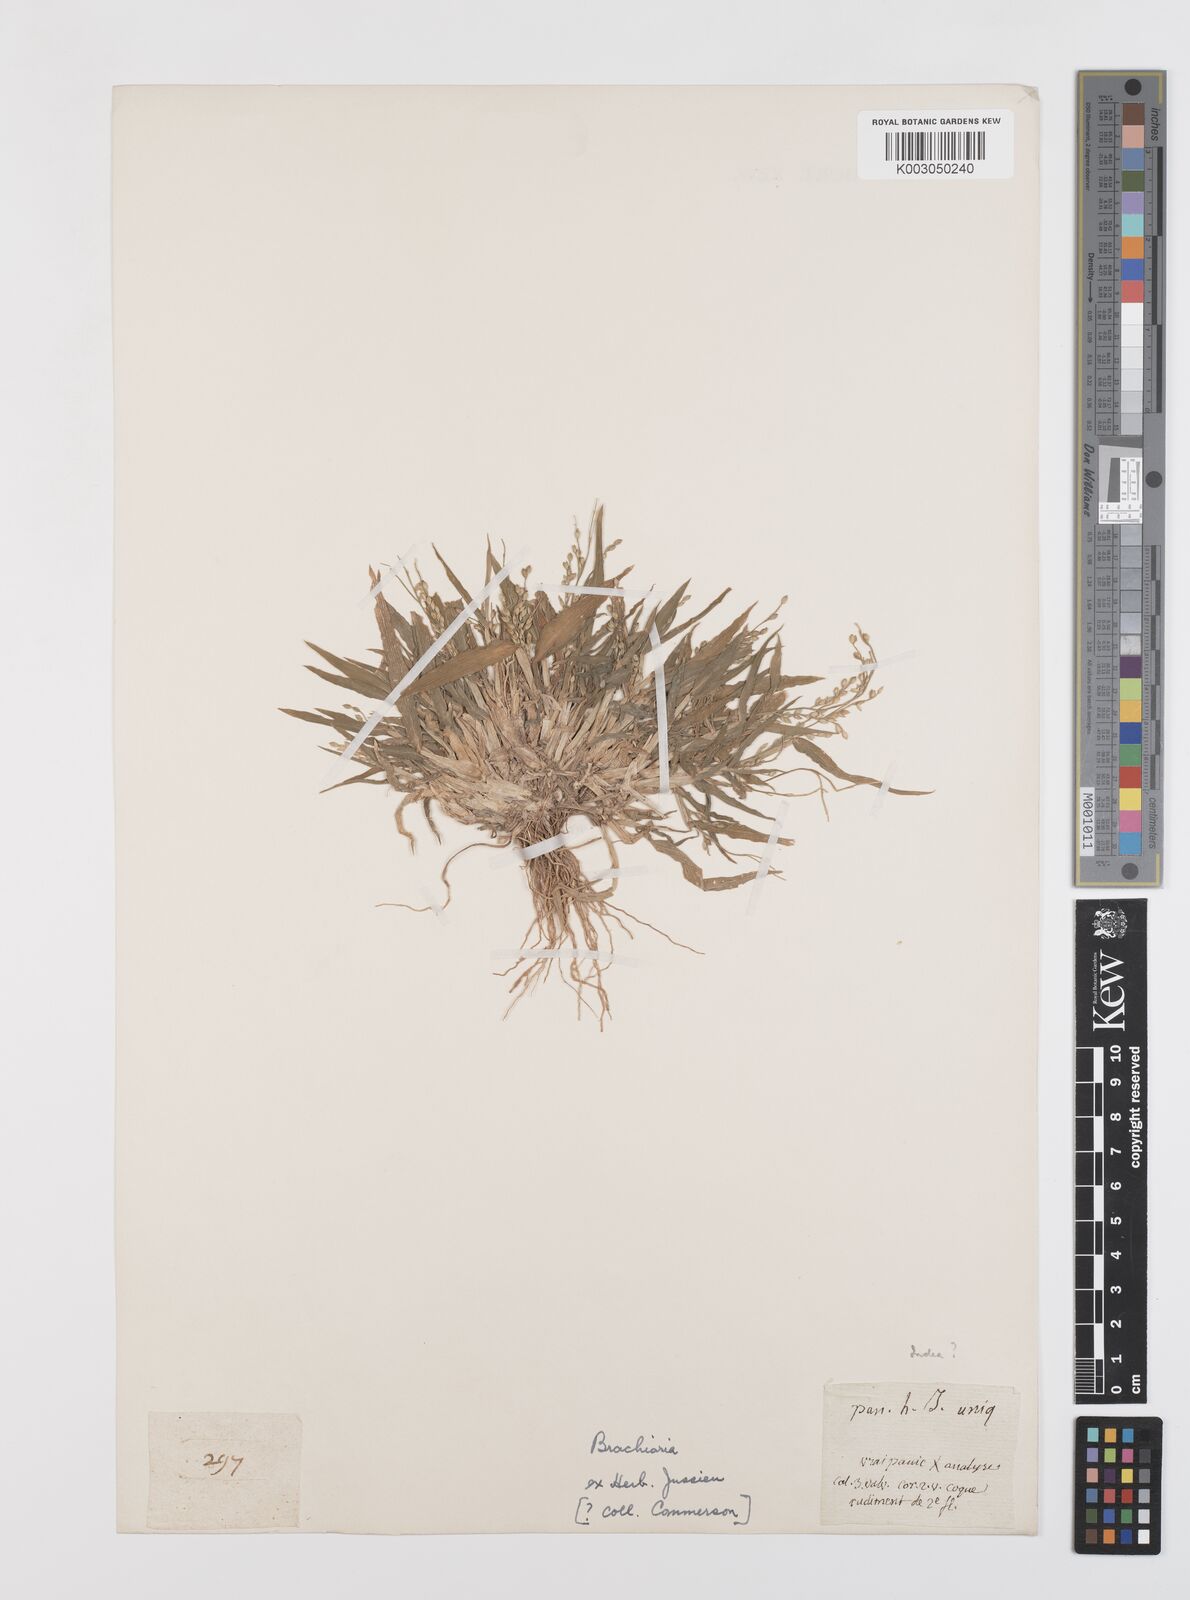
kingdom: Plantae
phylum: Tracheophyta
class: Liliopsida
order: Poales
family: Poaceae
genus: Urochloa
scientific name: Urochloa ramosa
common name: Browntop millet
